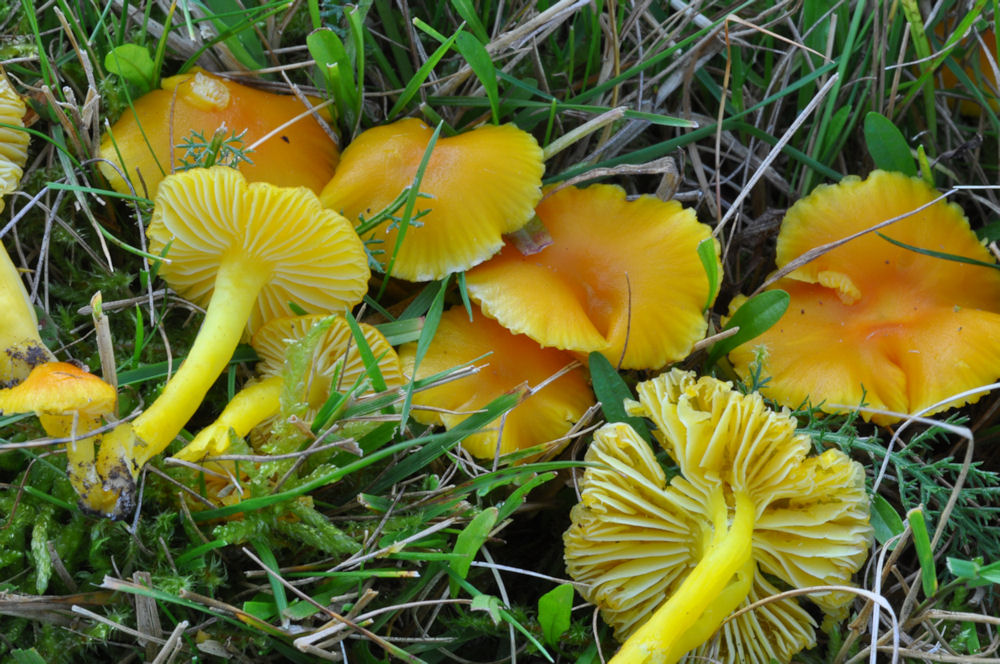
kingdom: Fungi
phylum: Basidiomycota
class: Agaricomycetes
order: Agaricales
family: Hygrophoraceae
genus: Hygrocybe
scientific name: Hygrocybe ceracea
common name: voksgul vokshat
